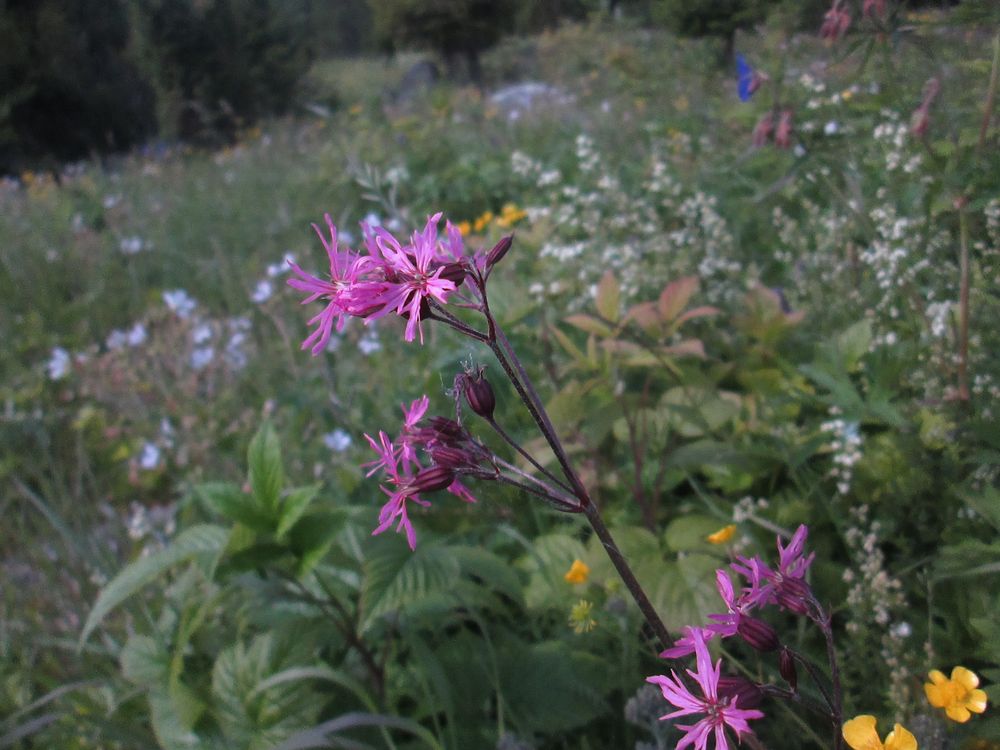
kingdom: Plantae
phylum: Tracheophyta
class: Magnoliopsida
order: Caryophyllales
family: Caryophyllaceae
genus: Silene
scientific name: Silene flos-cuculi
